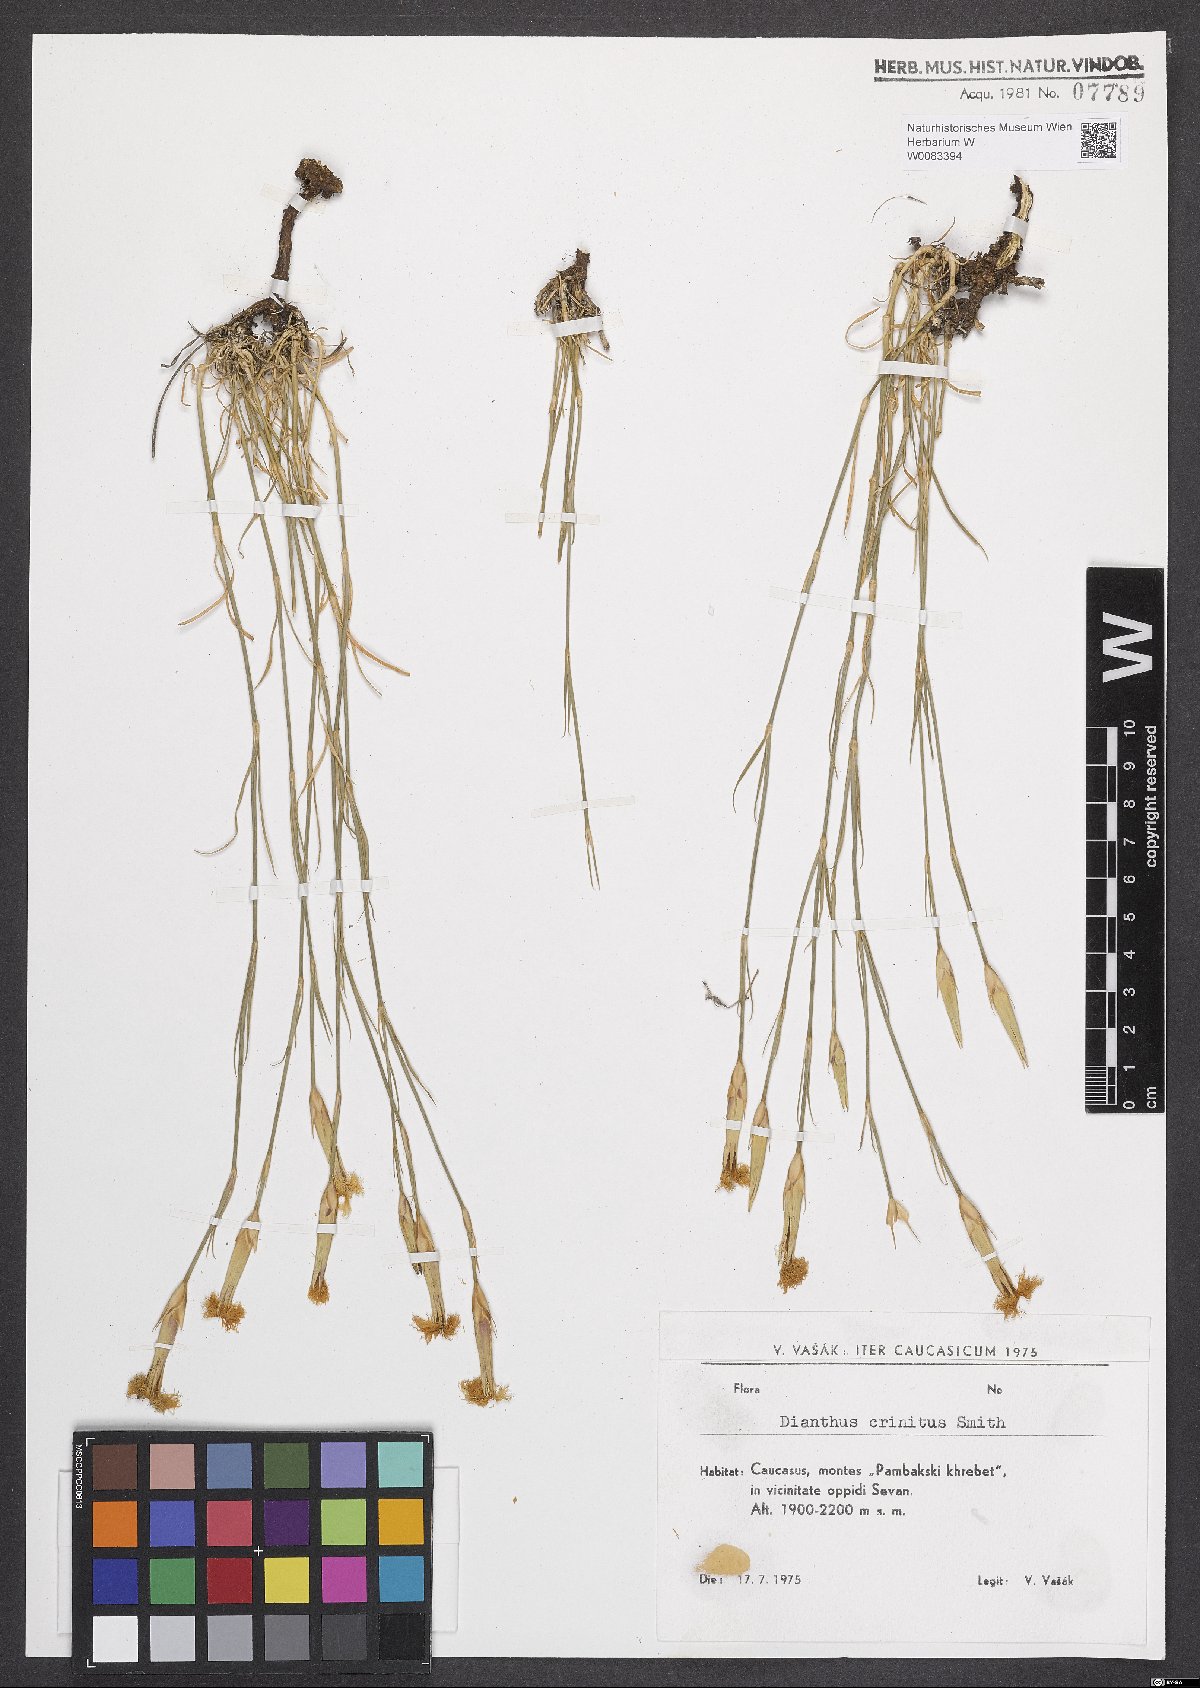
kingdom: Plantae
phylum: Tracheophyta
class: Magnoliopsida
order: Caryophyllales
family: Caryophyllaceae
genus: Dianthus
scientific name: Dianthus crinitus
